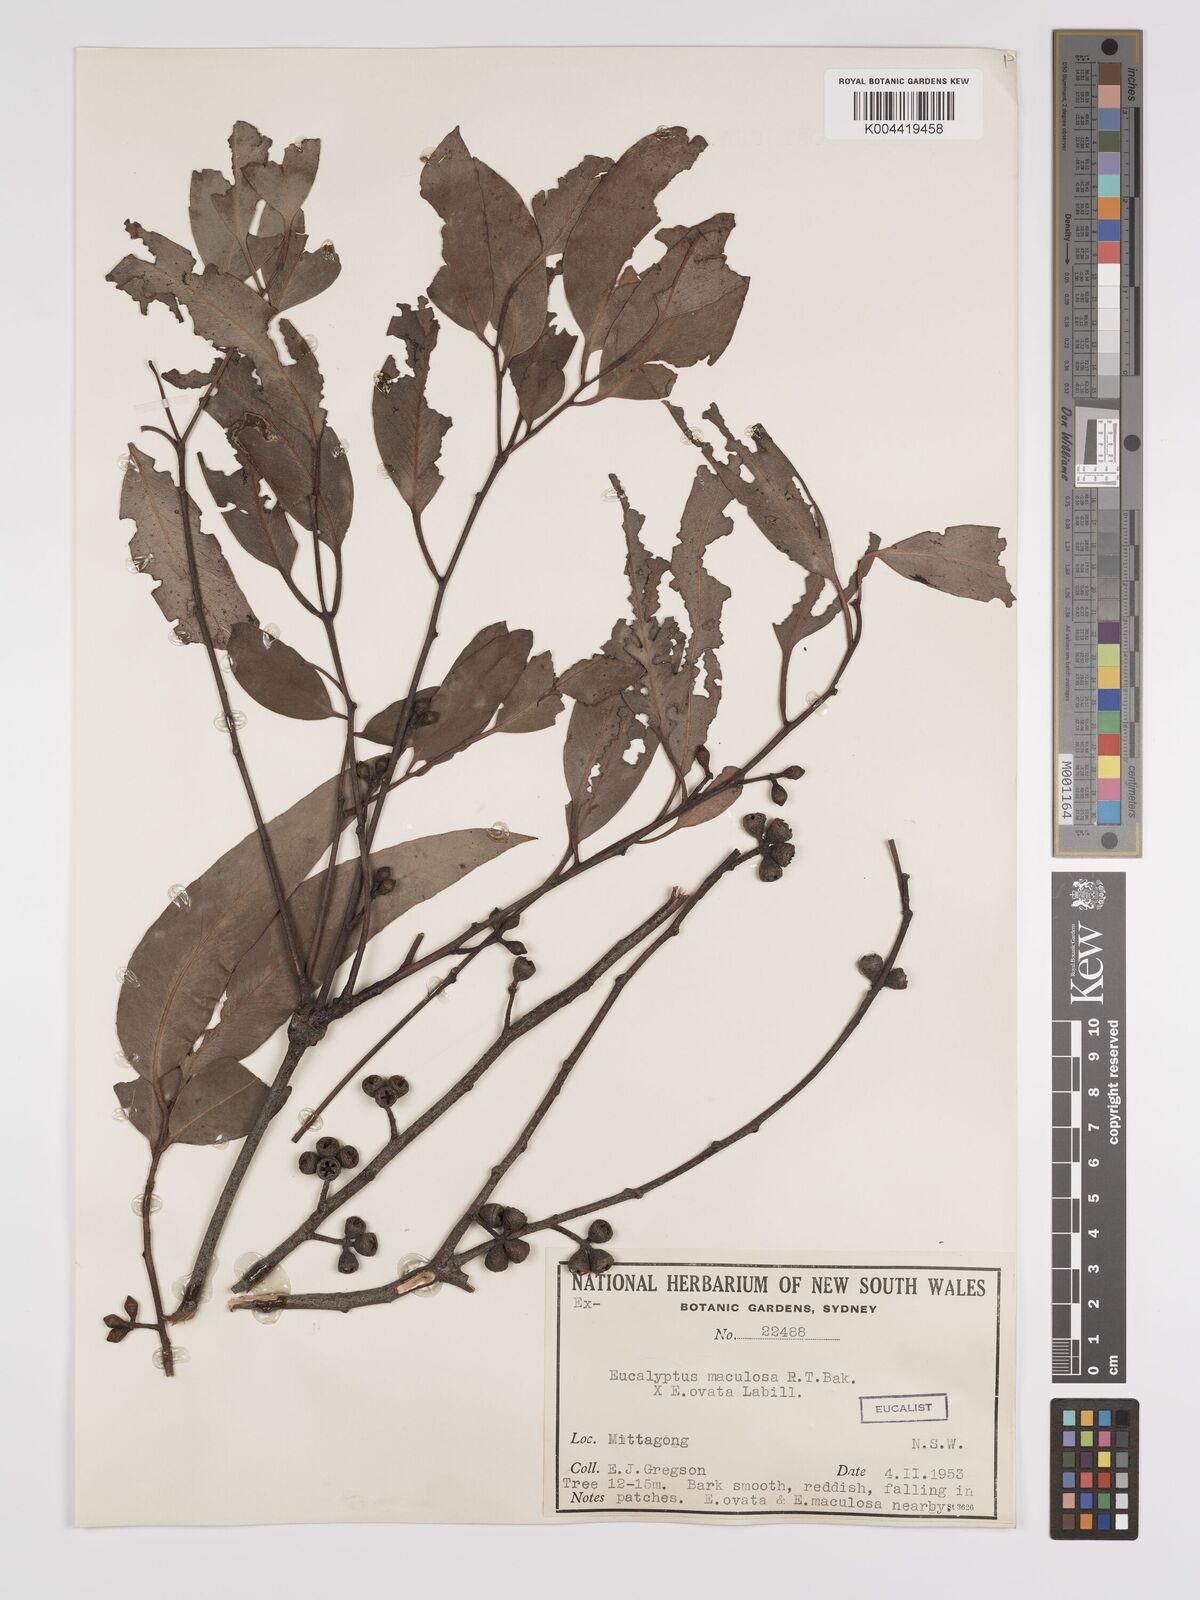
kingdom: Plantae
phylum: Tracheophyta
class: Magnoliopsida
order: Myrtales
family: Myrtaceae
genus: Eucalyptus
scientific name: Eucalyptus mannifera
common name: Manna gum
